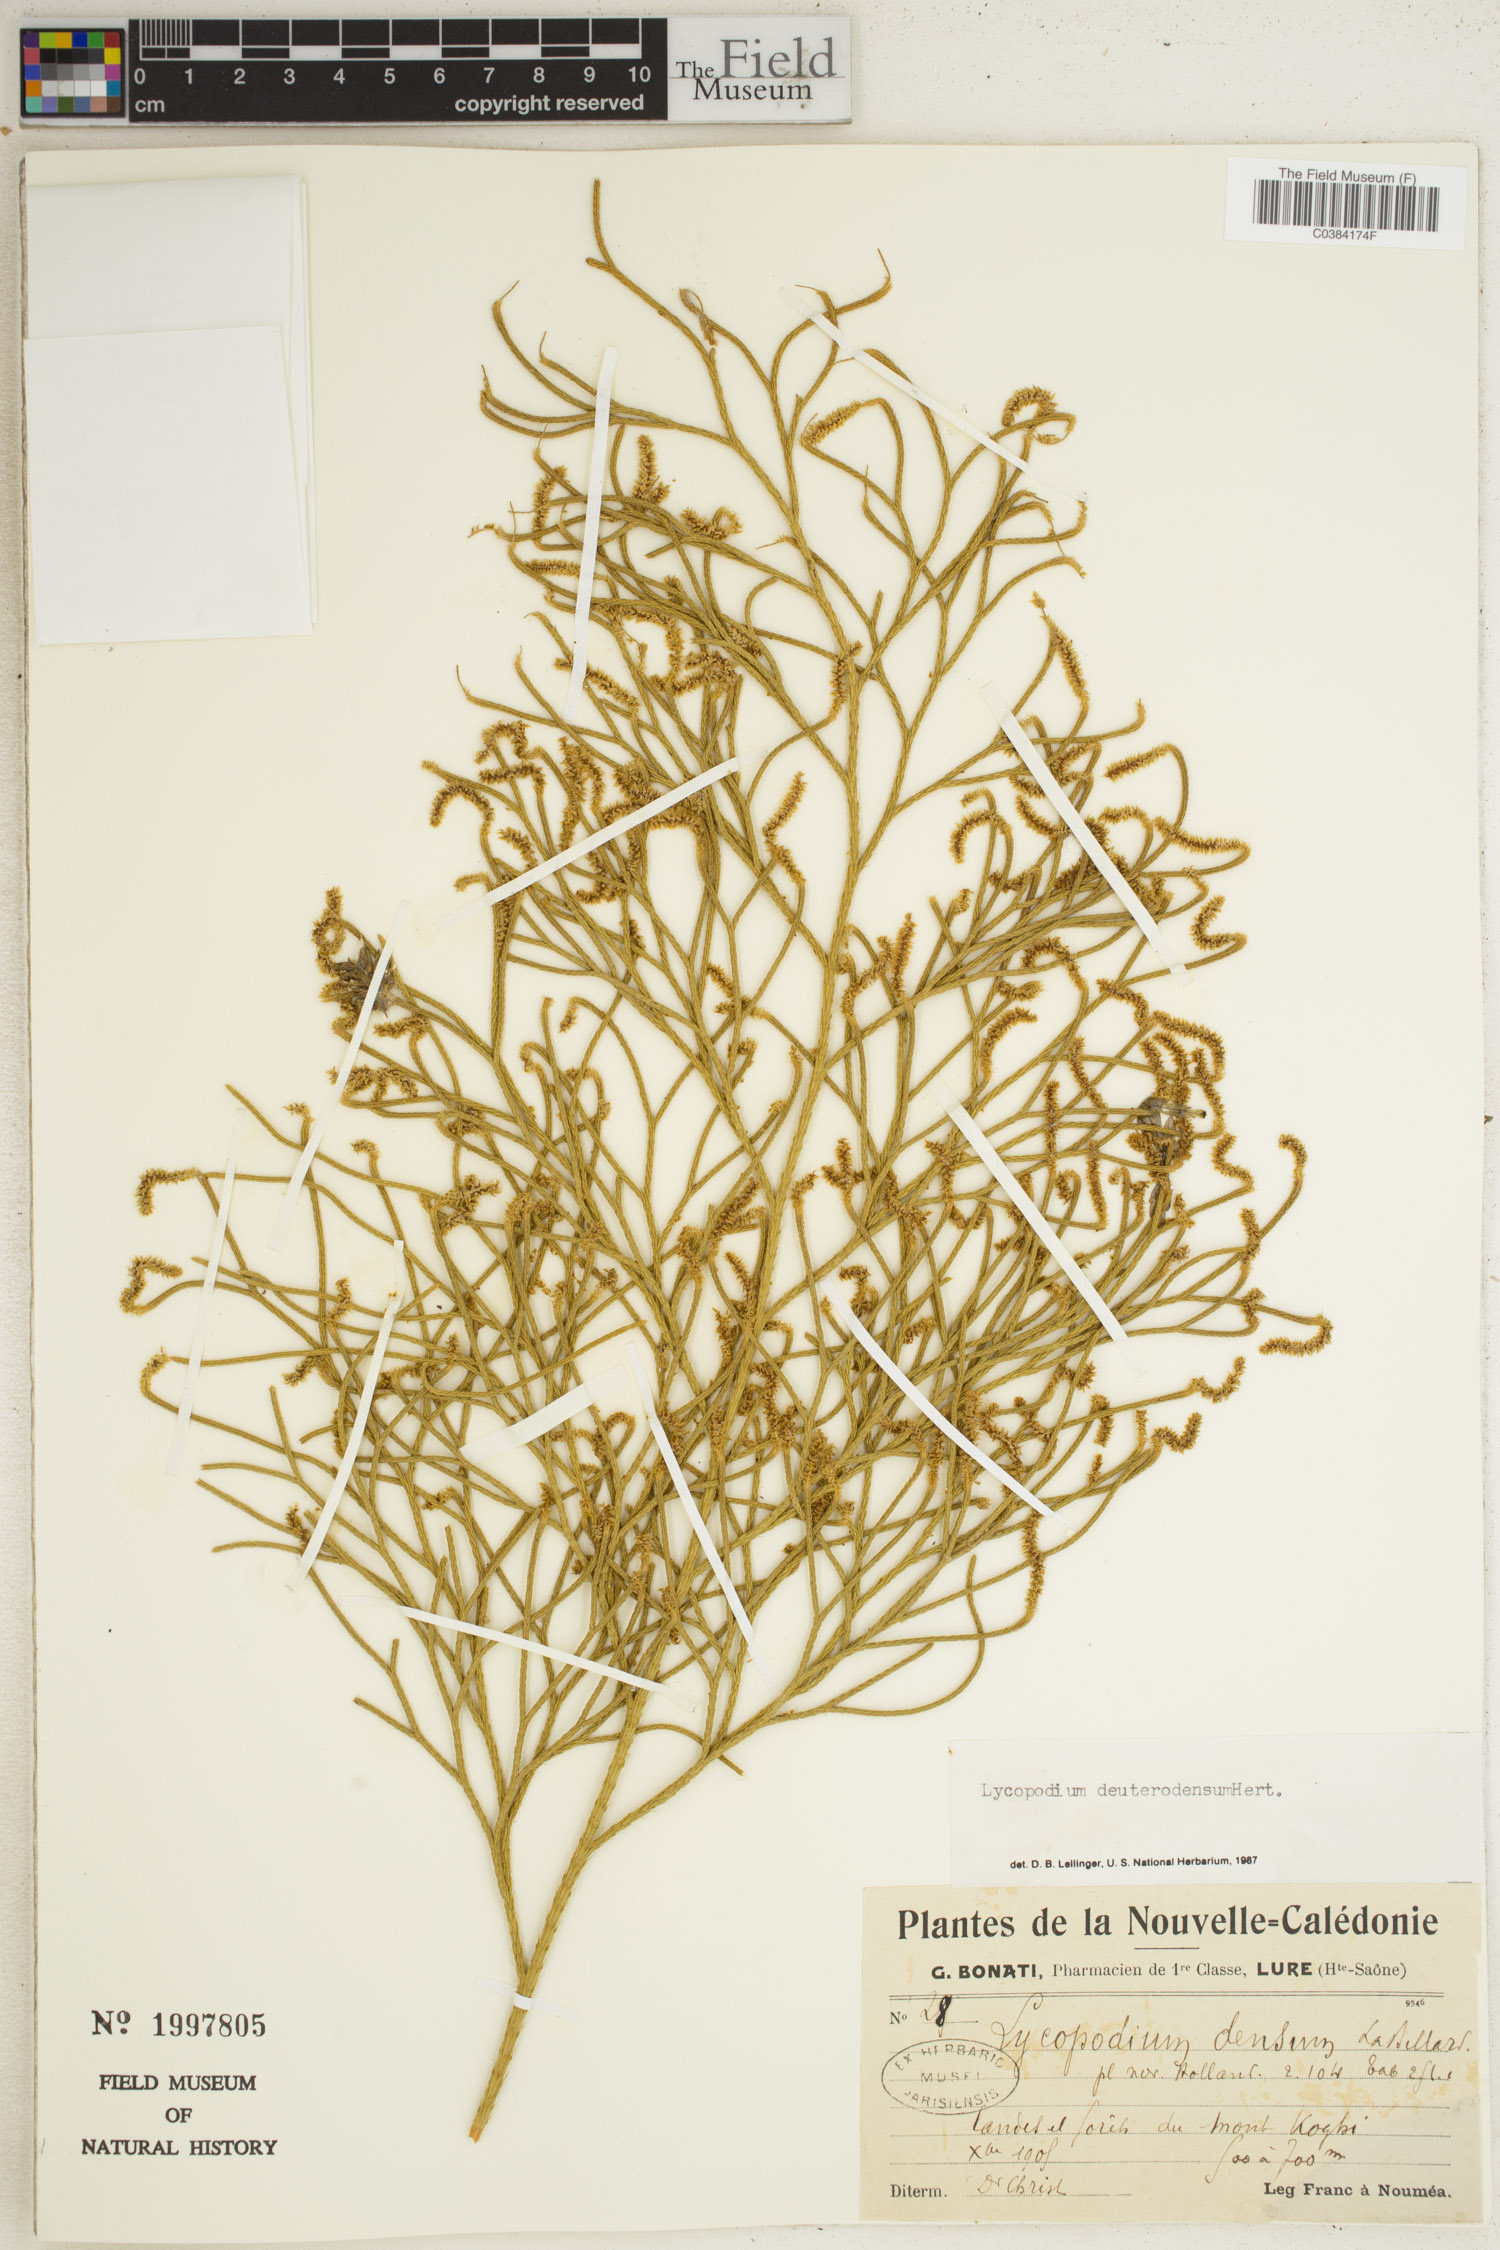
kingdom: Plantae
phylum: Tracheophyta
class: Lycopodiopsida
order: Lycopodiales
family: Lycopodiaceae
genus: Pseudolycopodium
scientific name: Pseudolycopodium densum
